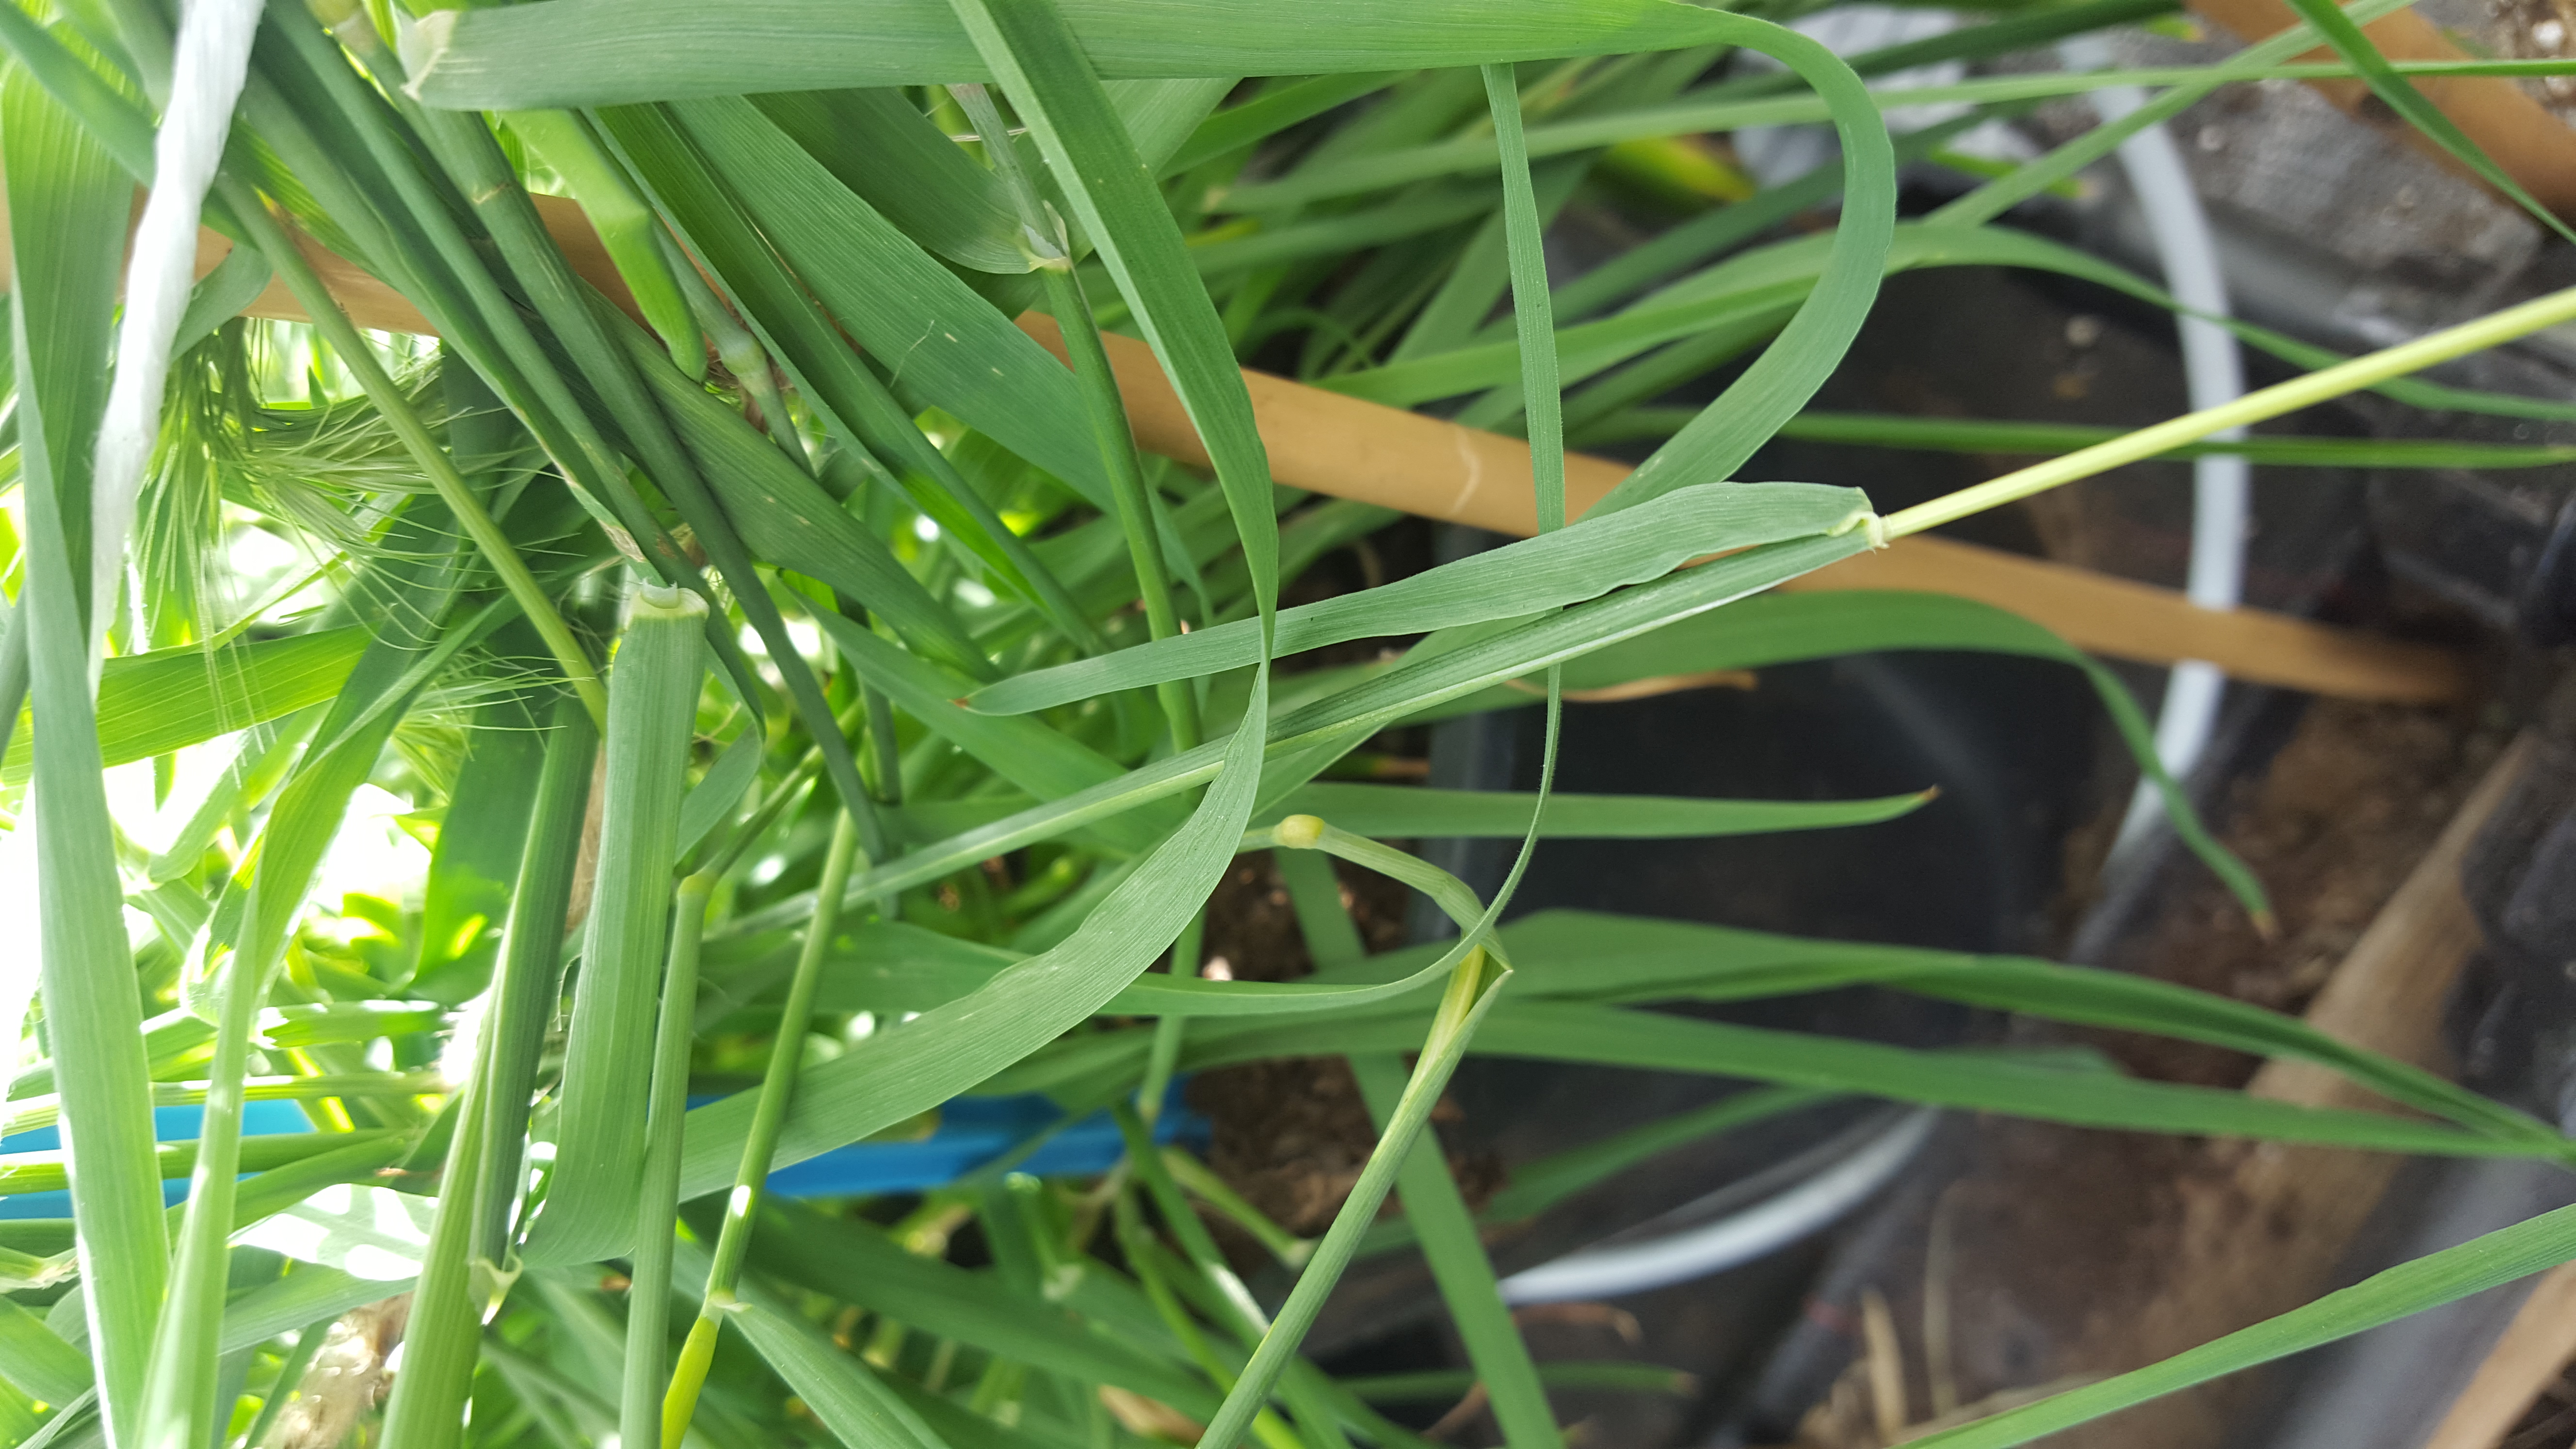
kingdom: Plantae
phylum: Tracheophyta
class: Liliopsida
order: Poales
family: Poaceae
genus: Hordeum
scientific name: Hordeum chilense
